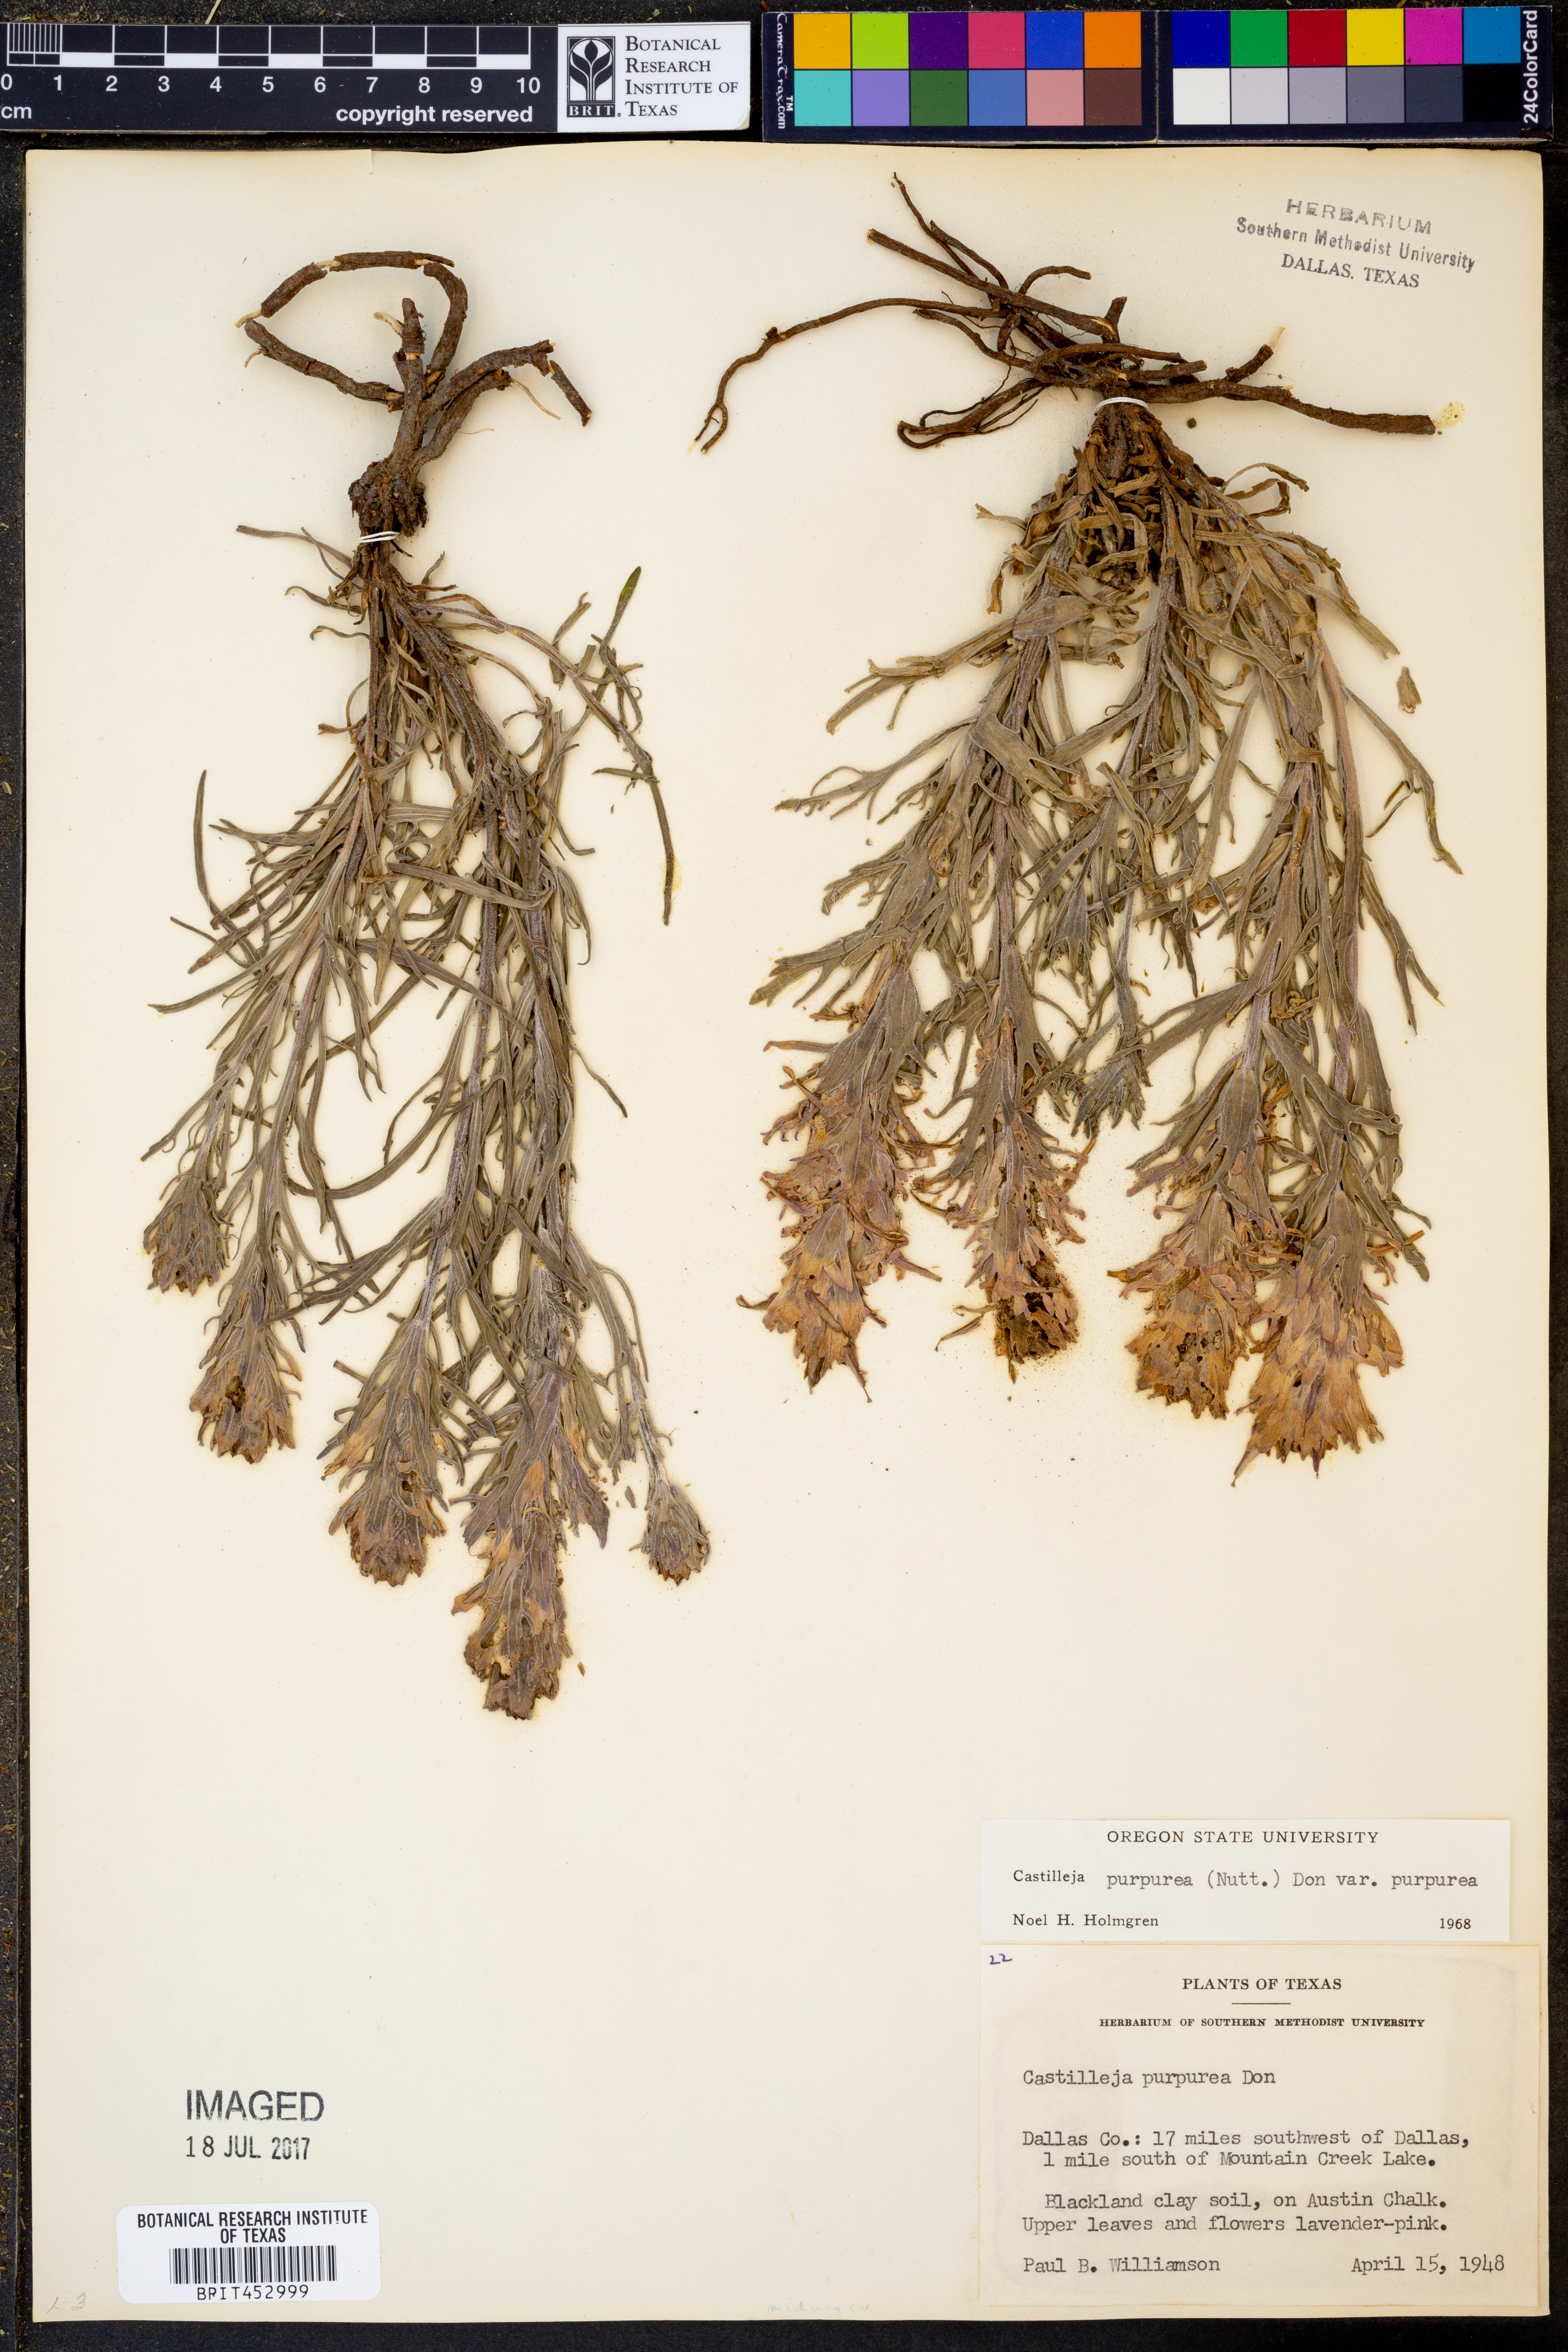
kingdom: Plantae
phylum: Tracheophyta
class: Magnoliopsida
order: Lamiales
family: Orobanchaceae
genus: Castilleja
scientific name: Castilleja purpurea
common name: Plains paintbrush
